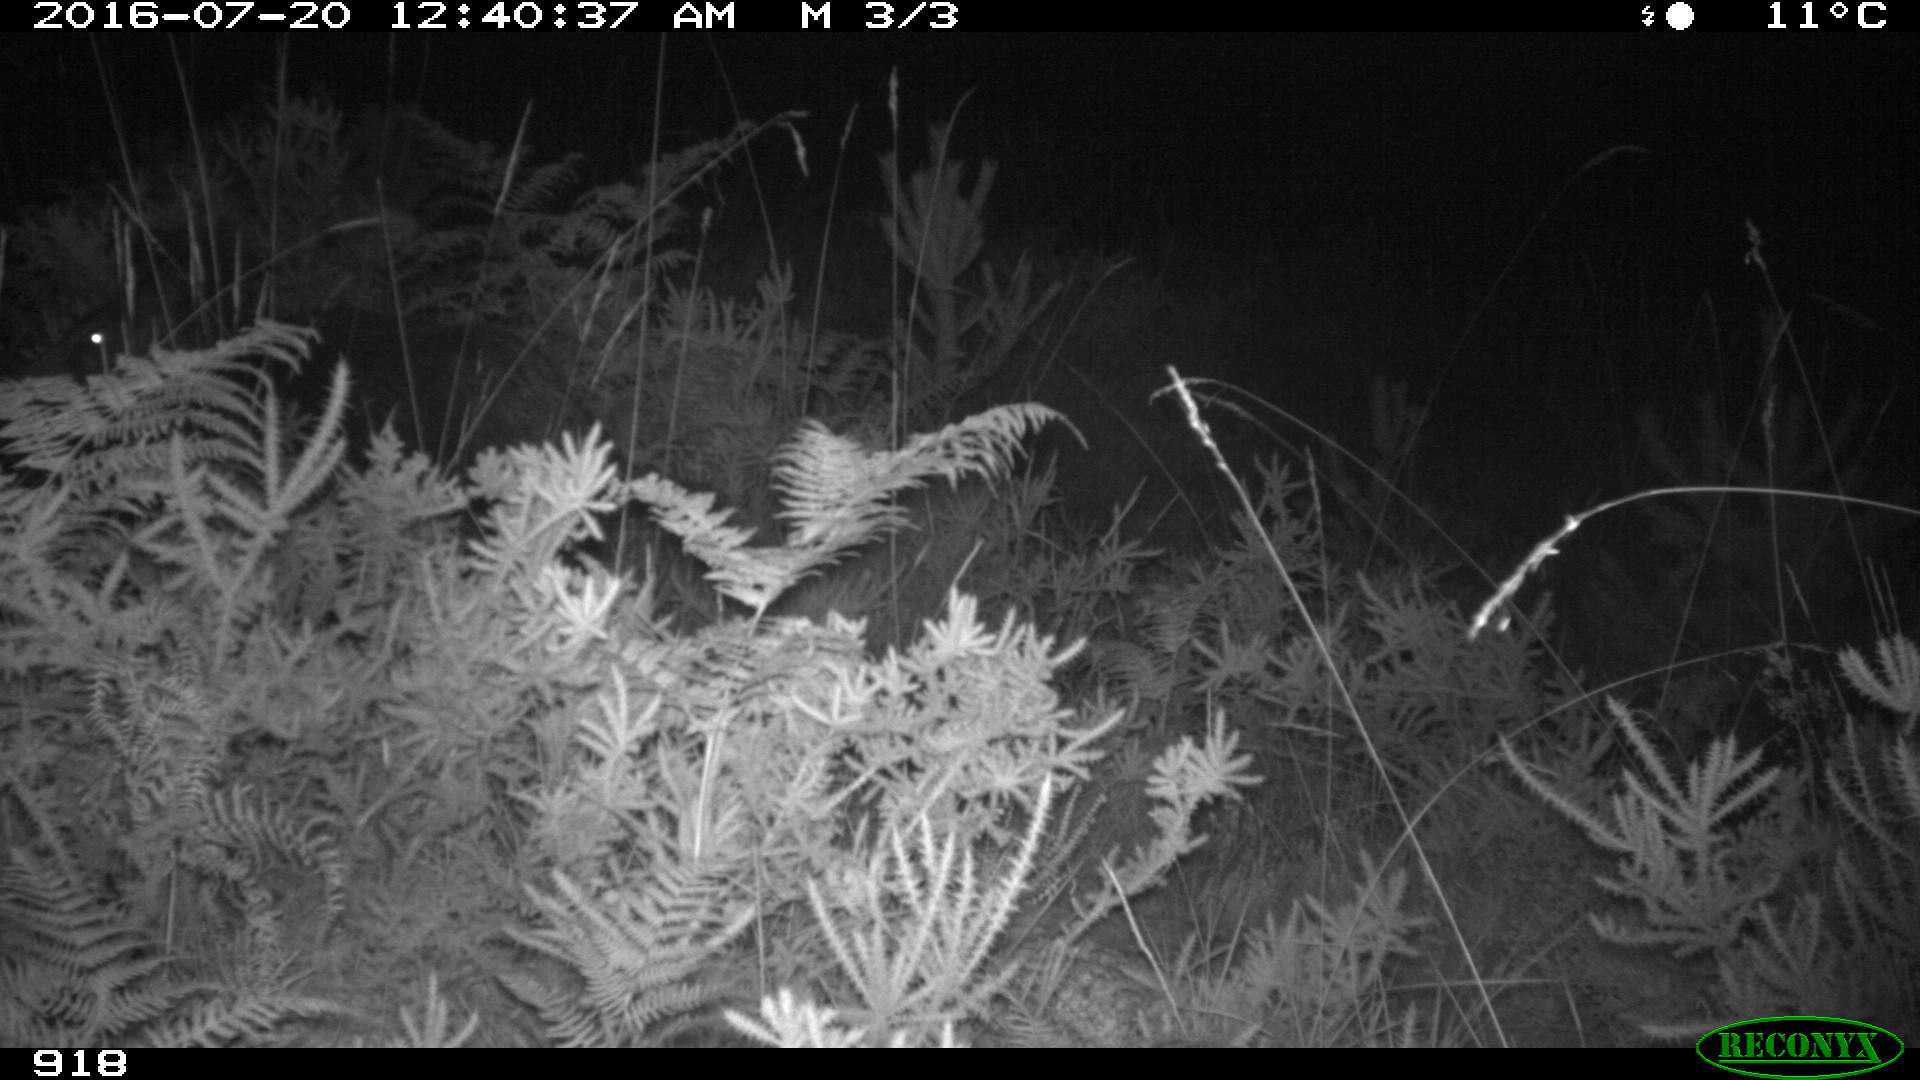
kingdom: Animalia
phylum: Chordata
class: Mammalia
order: Artiodactyla
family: Suidae
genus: Sus
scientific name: Sus scrofa
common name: Wild boar
